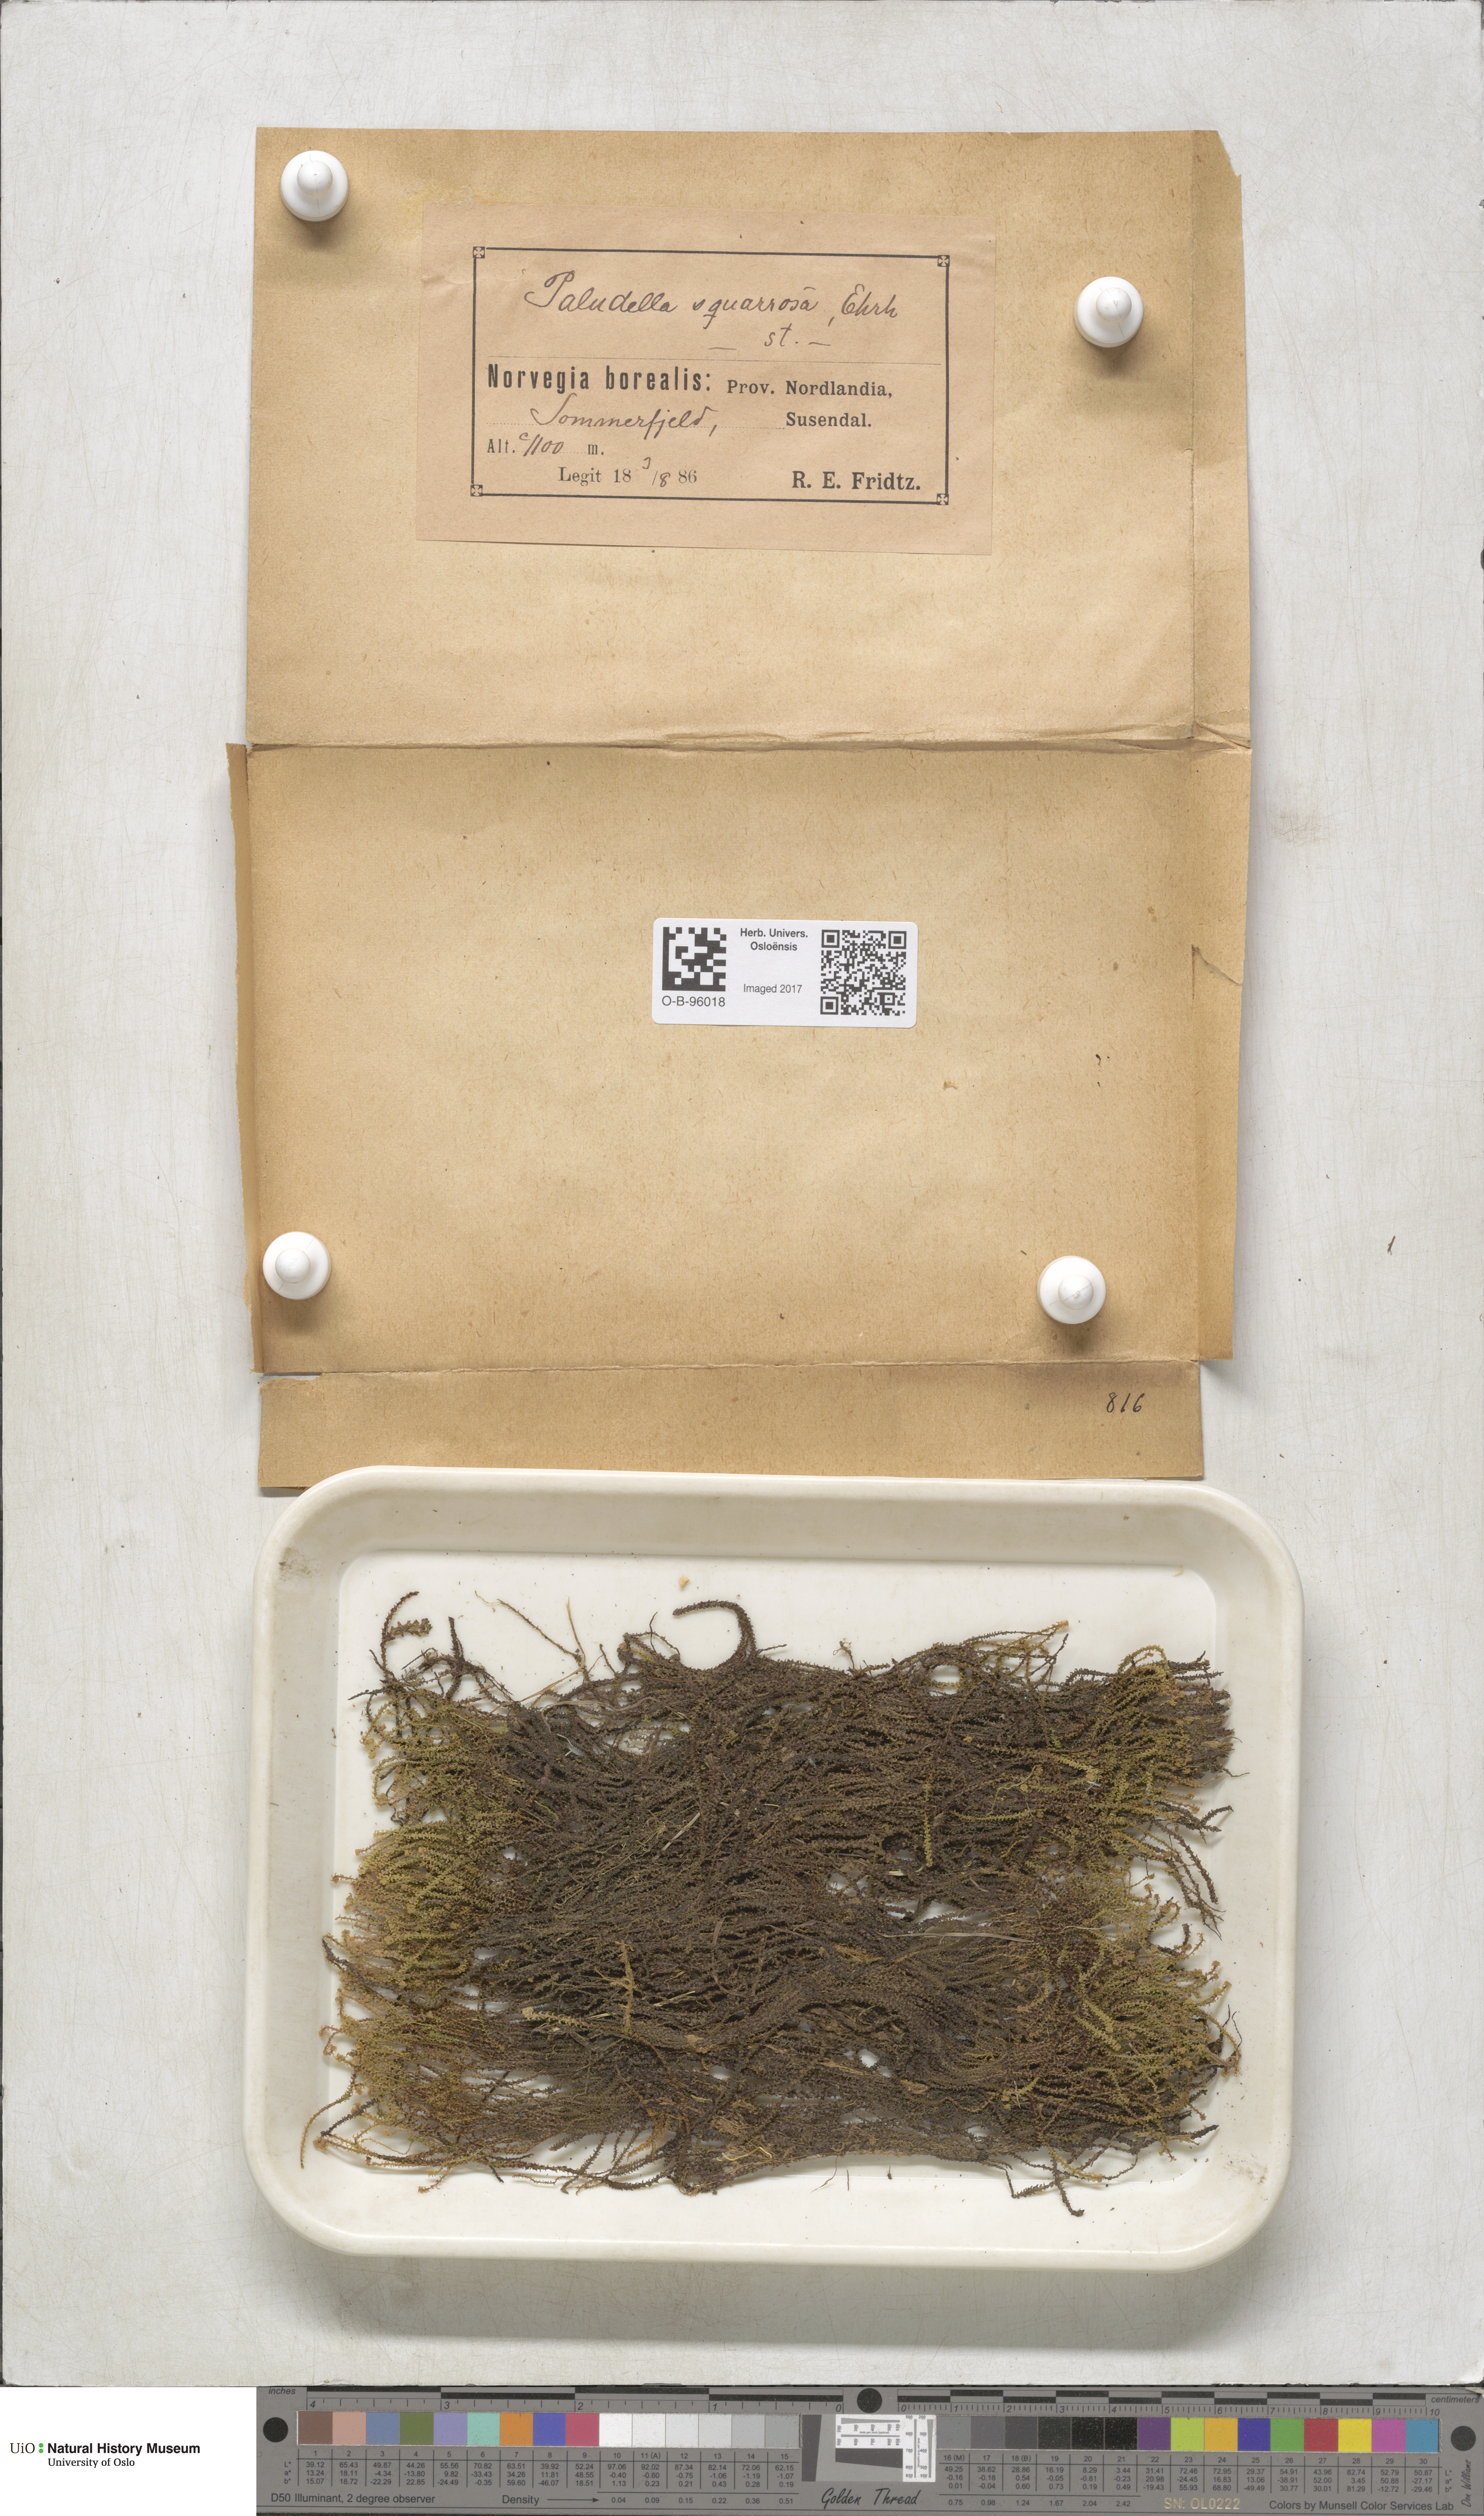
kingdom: Plantae
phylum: Bryophyta
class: Bryopsida
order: Splachnales
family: Meesiaceae
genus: Paludella
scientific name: Paludella squarrosa
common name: Tufted fen moss
